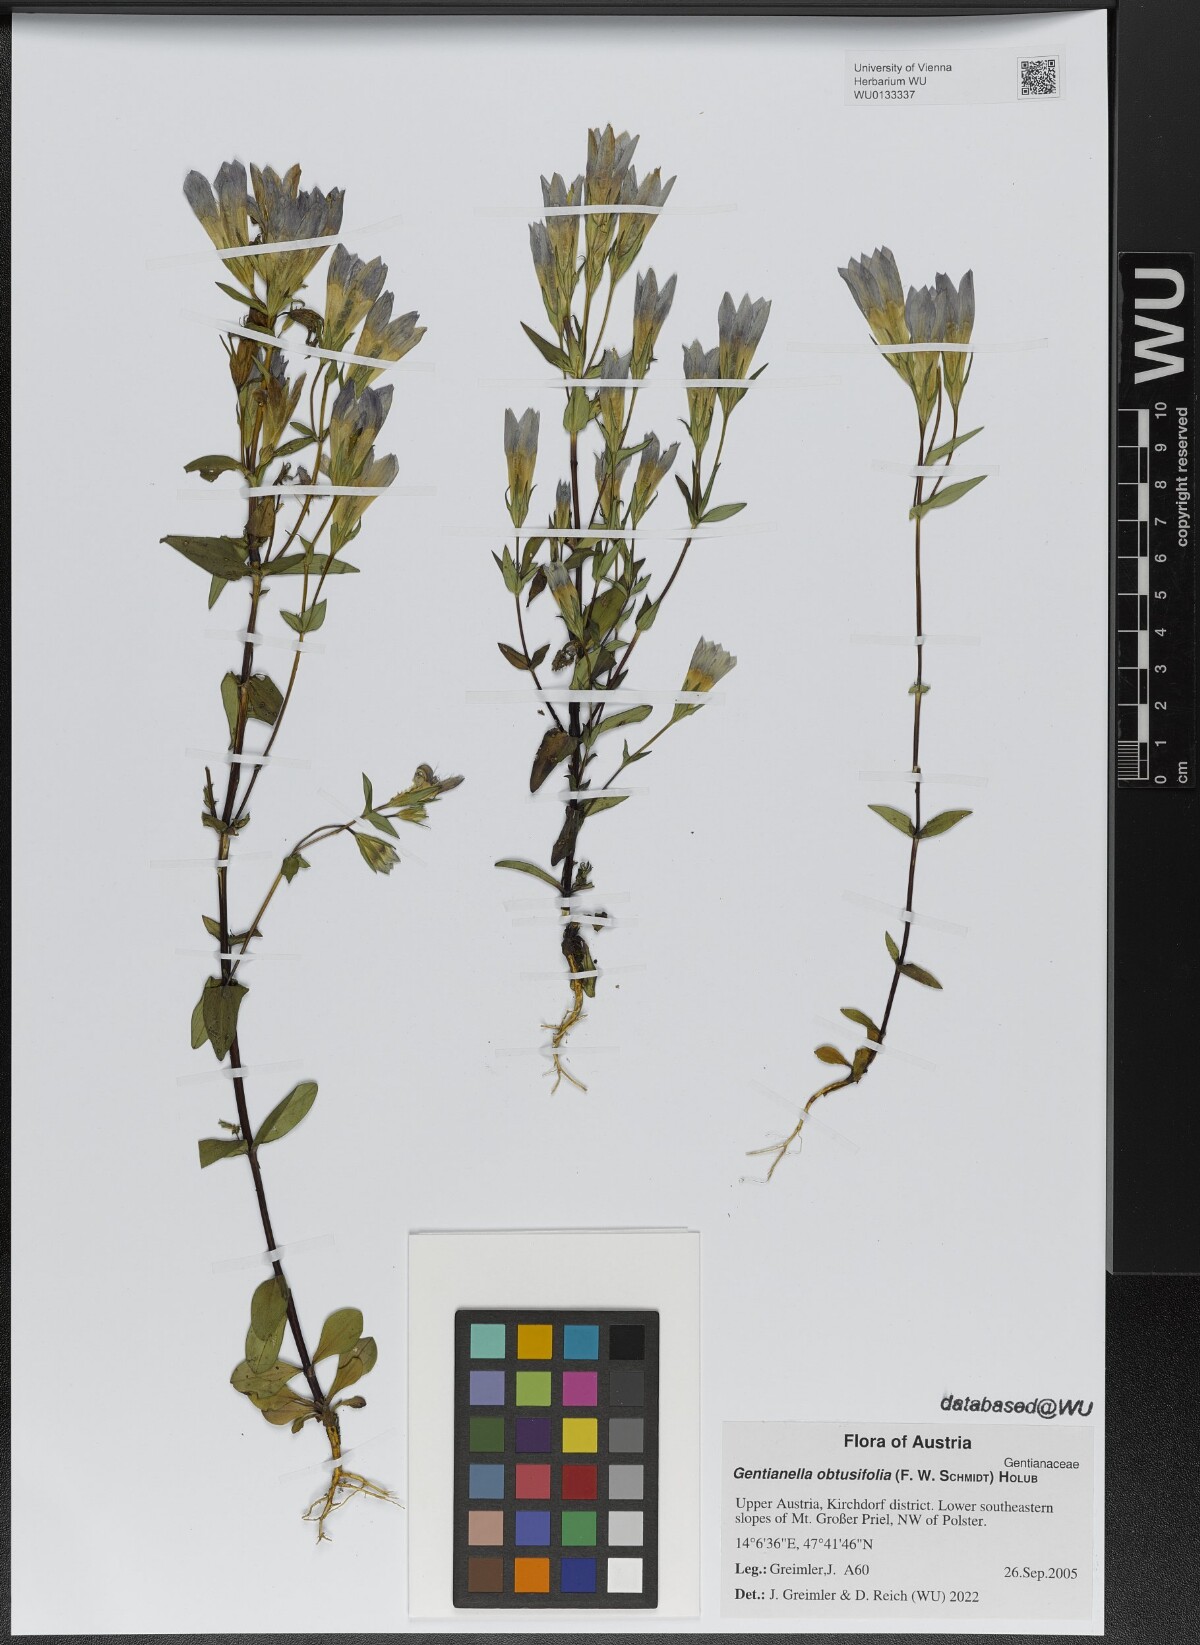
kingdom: Plantae
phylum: Tracheophyta
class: Magnoliopsida
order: Gentianales
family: Gentianaceae
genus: Gentianella
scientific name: Gentianella obtusifolia
